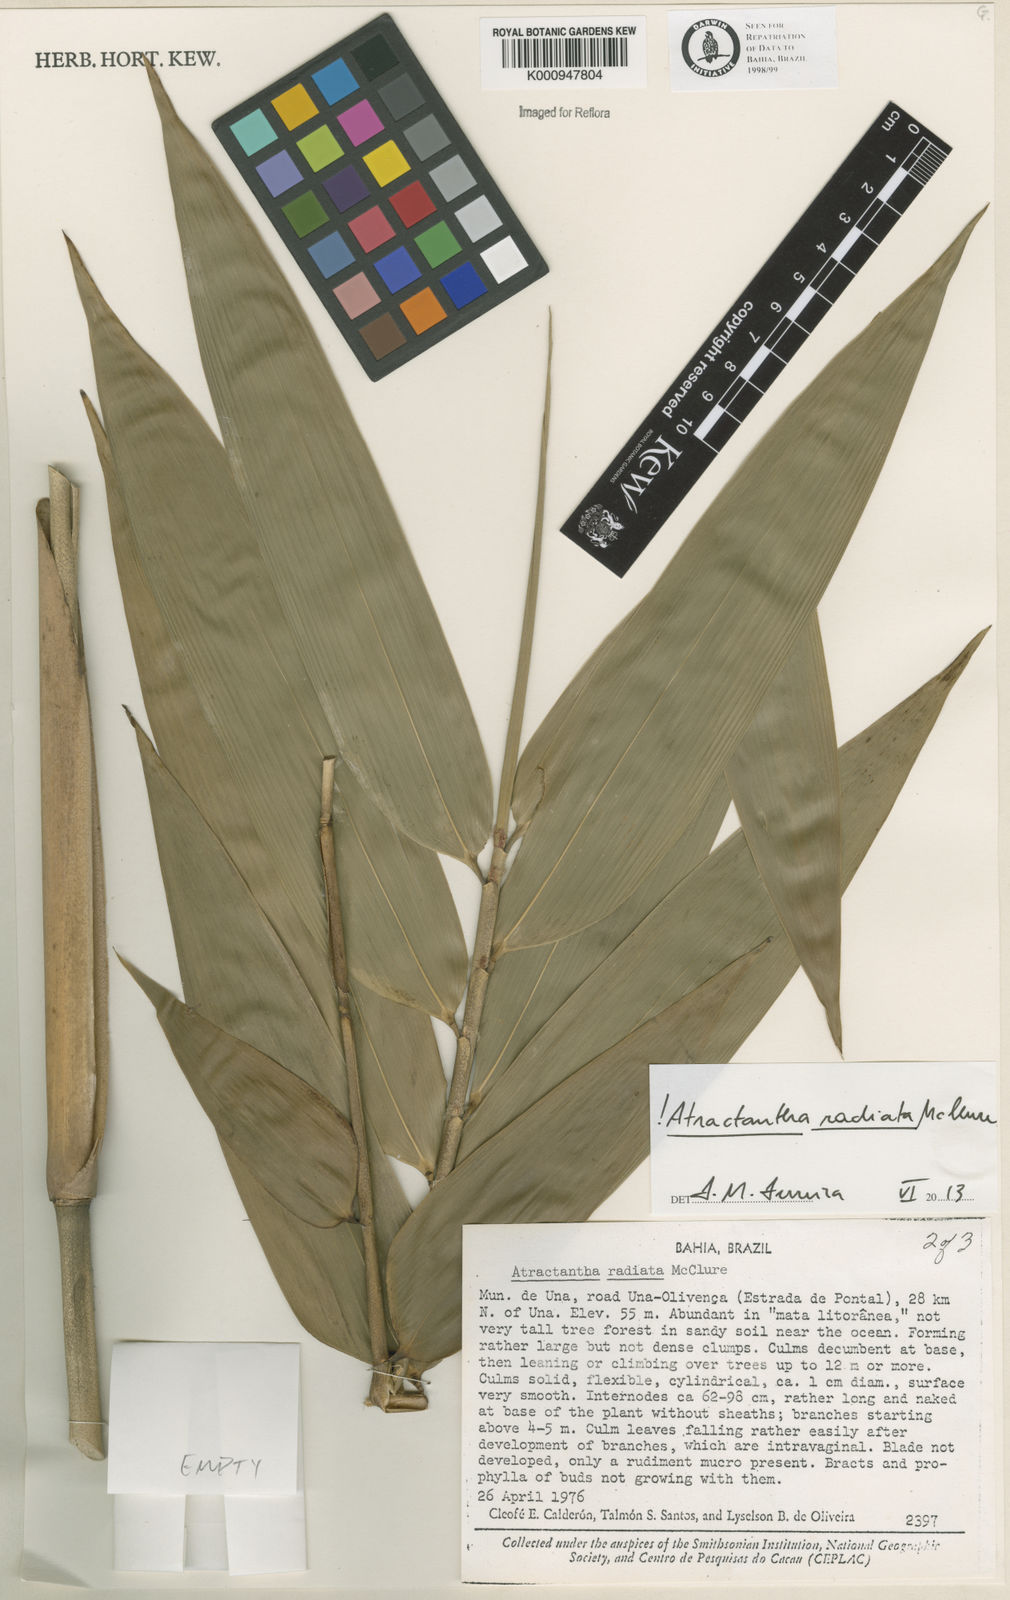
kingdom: Plantae
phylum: Tracheophyta
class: Liliopsida
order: Poales
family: Poaceae
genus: Atractantha
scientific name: Atractantha radiata
